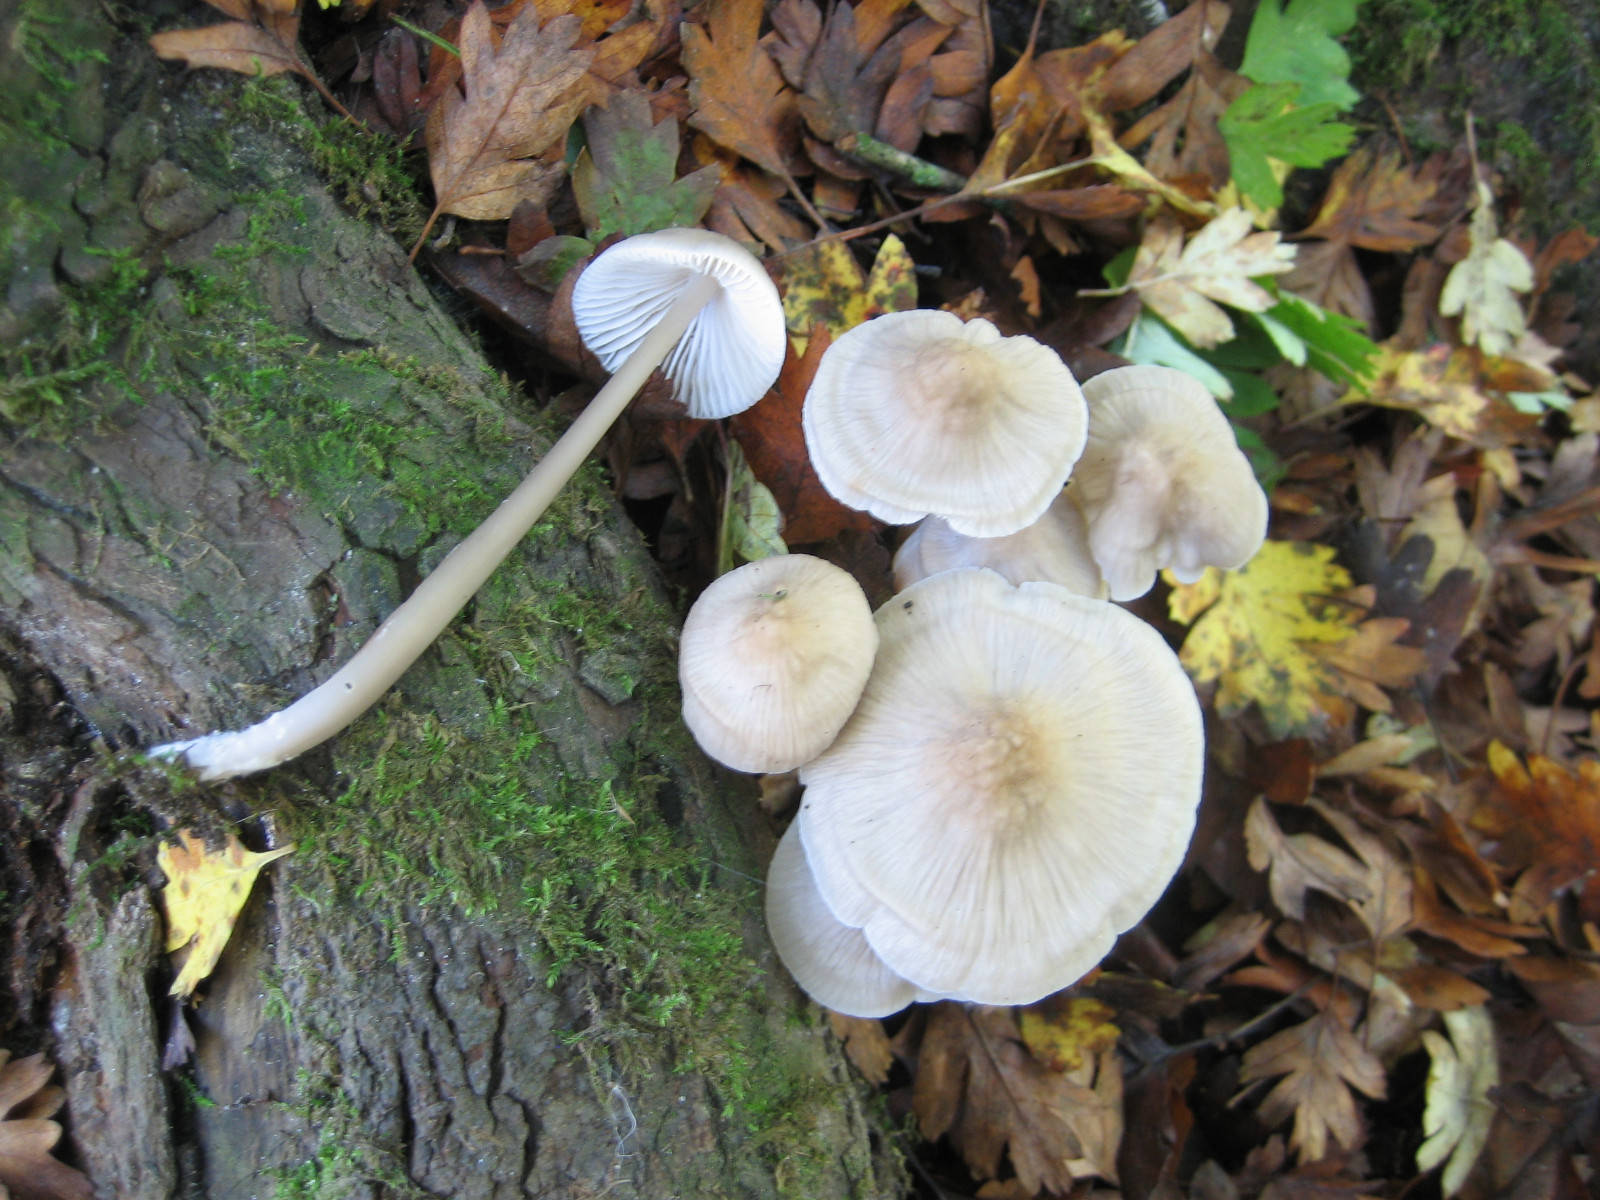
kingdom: Fungi
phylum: Basidiomycota
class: Agaricomycetes
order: Agaricales
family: Mycenaceae
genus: Mycena
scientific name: Mycena galericulata
